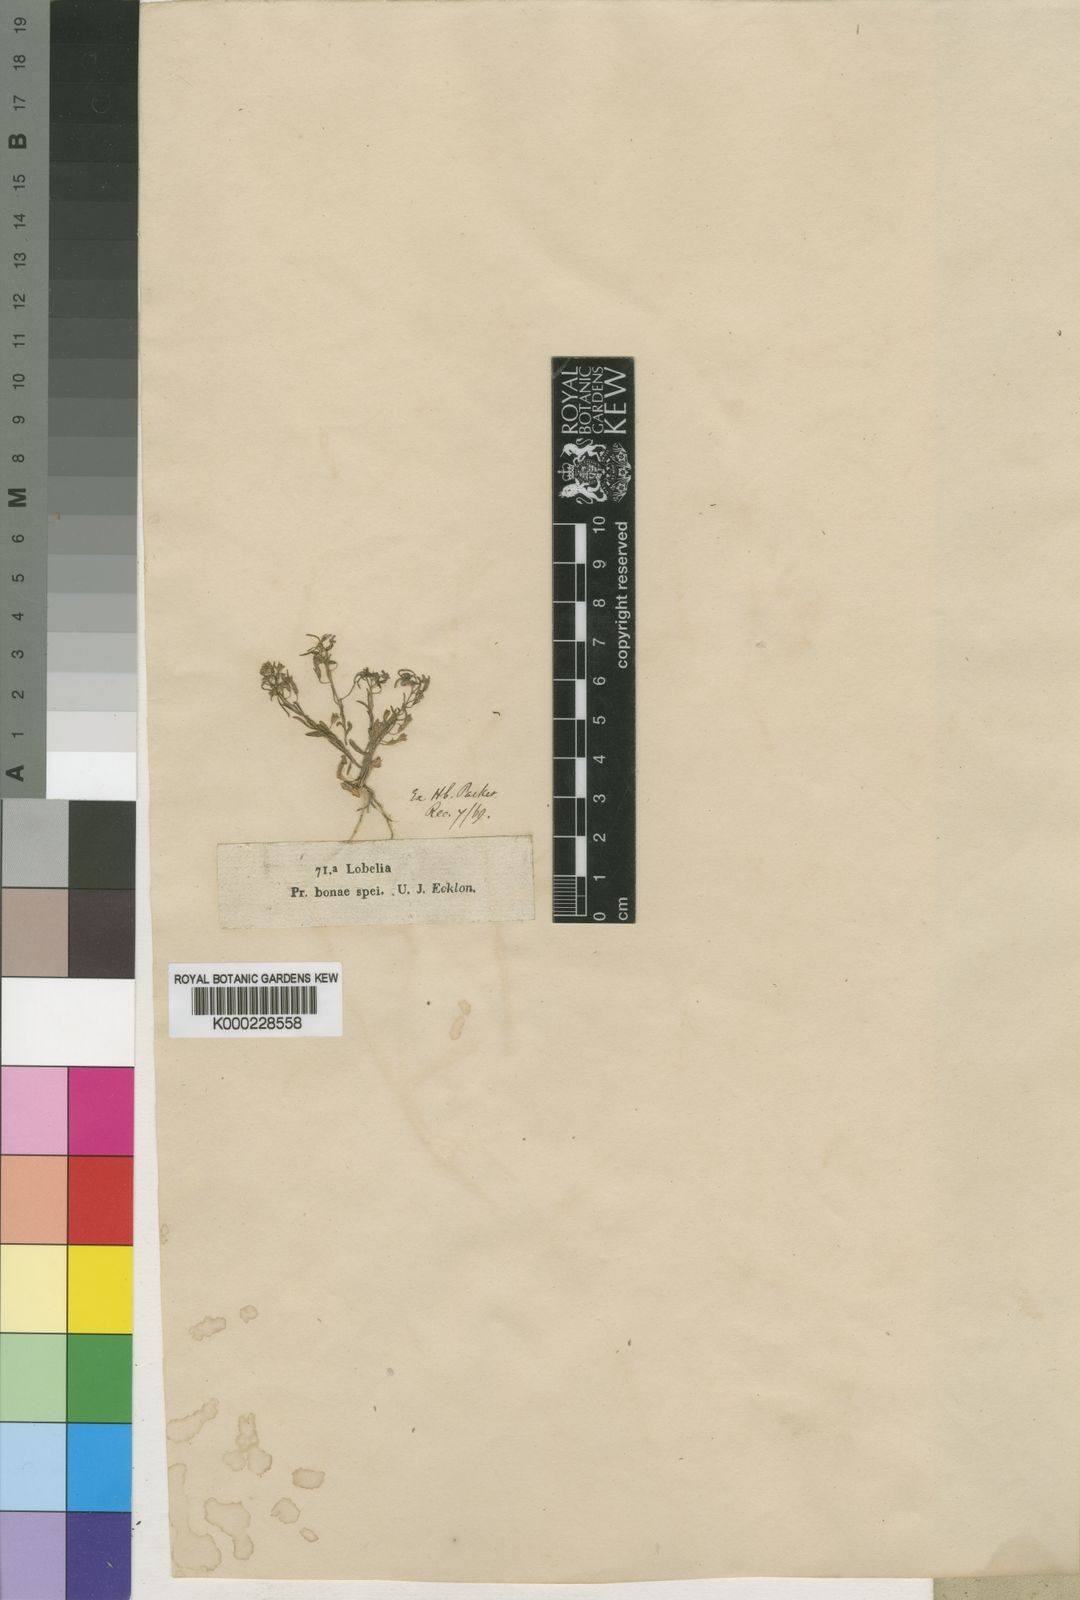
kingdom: Plantae
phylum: Tracheophyta
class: Magnoliopsida
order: Asterales
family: Campanulaceae
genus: Wimmerella
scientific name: Wimmerella
